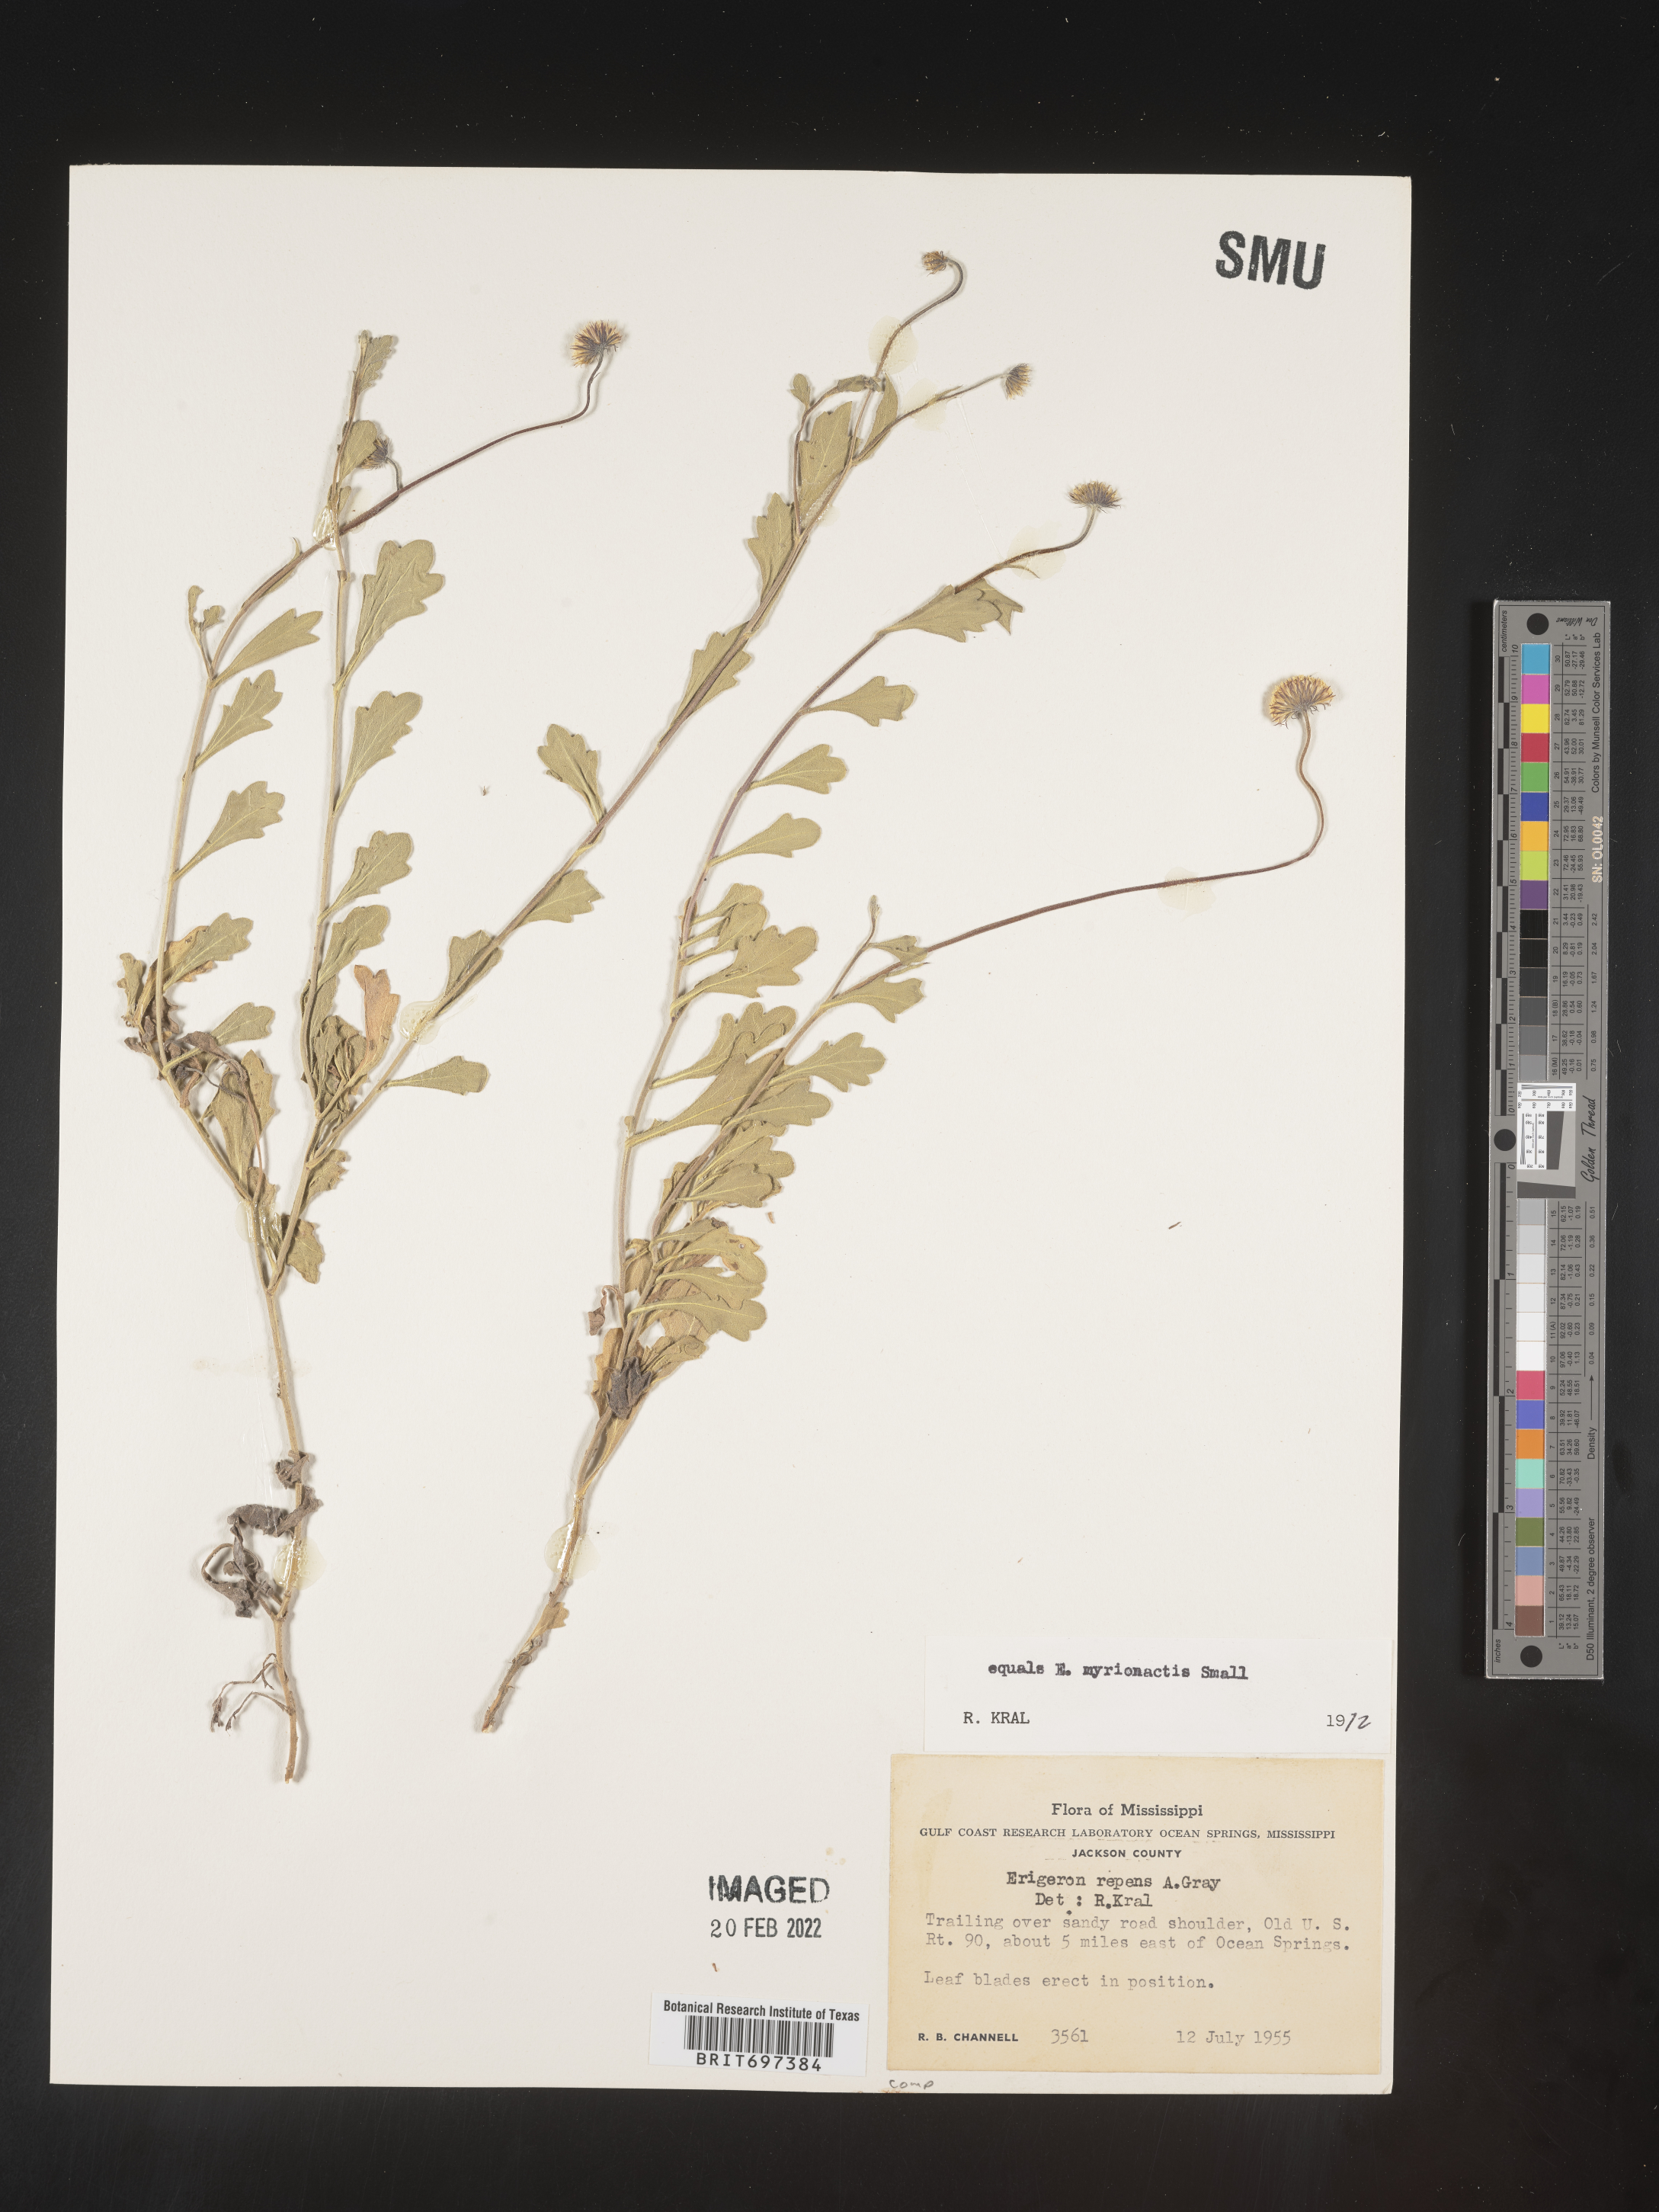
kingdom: Plantae
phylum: Tracheophyta
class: Magnoliopsida
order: Asterales
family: Asteraceae
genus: Erigeron
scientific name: Erigeron procumbens
